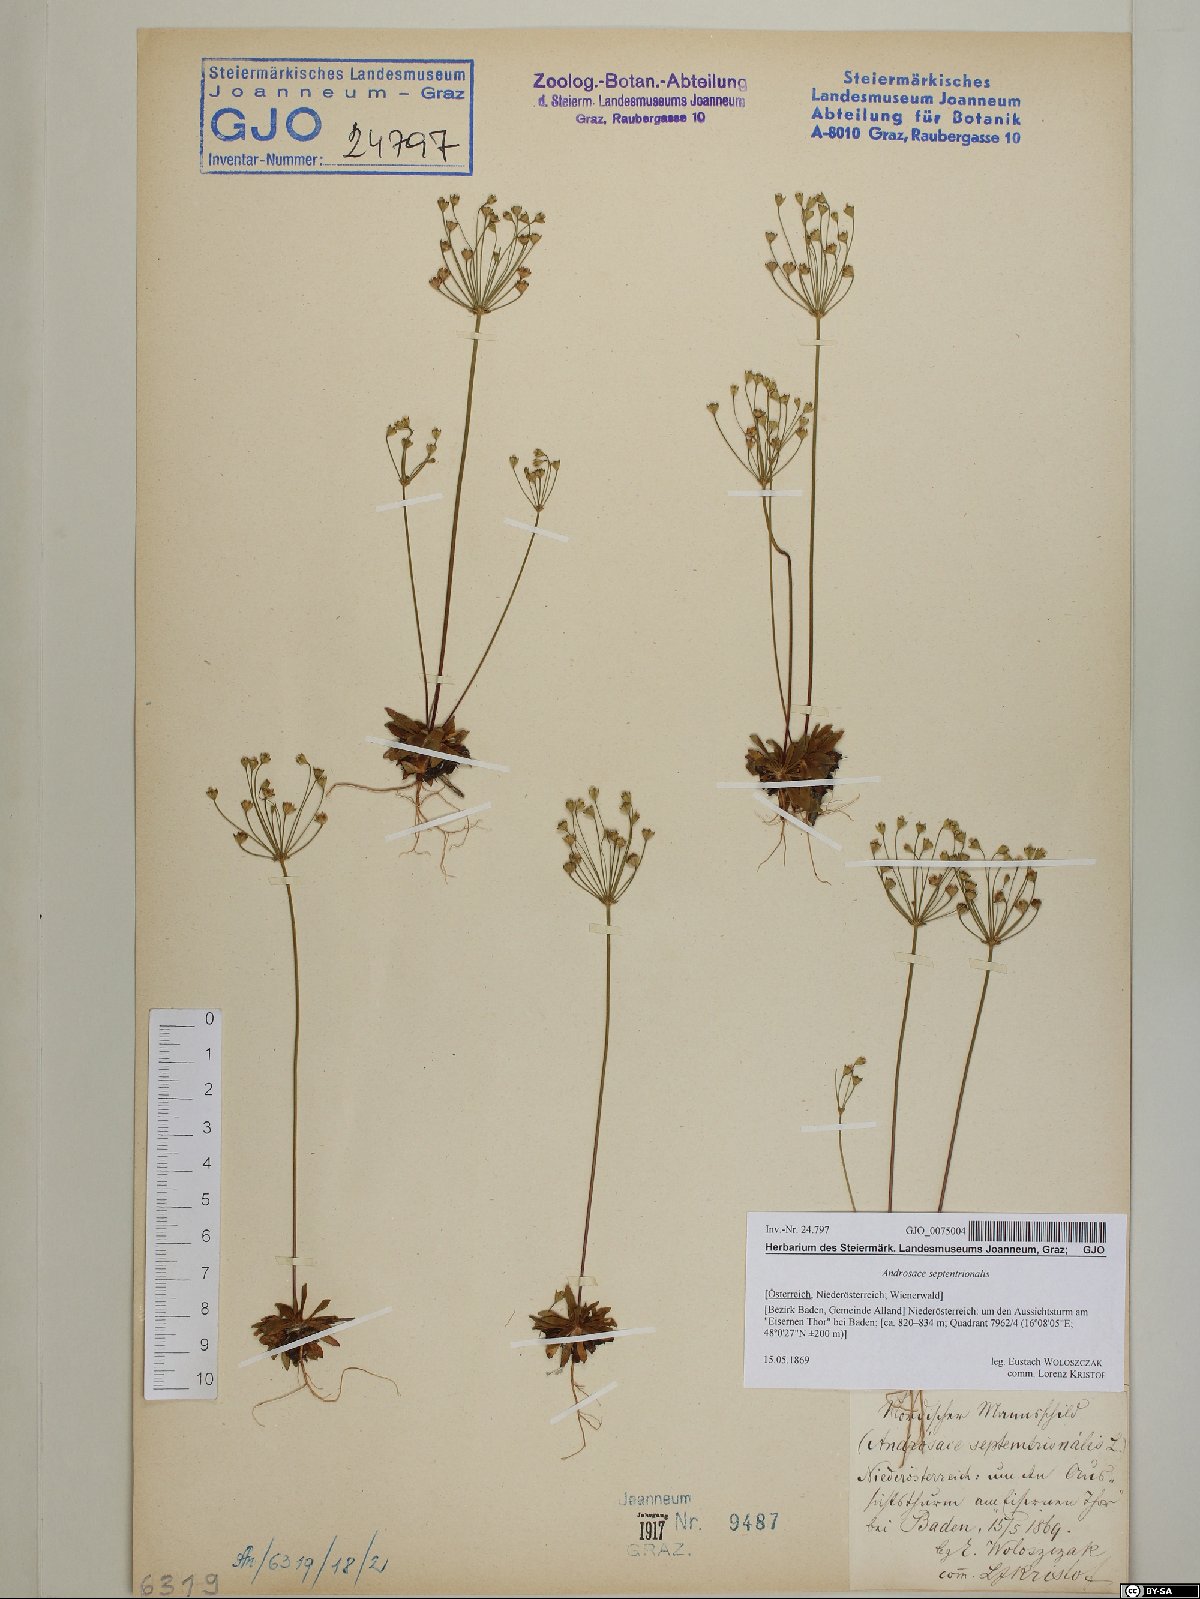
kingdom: Plantae
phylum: Tracheophyta
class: Magnoliopsida
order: Ericales
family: Primulaceae
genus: Androsace
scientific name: Androsace septentrionalis
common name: Hairy northern fairy-candelabra
